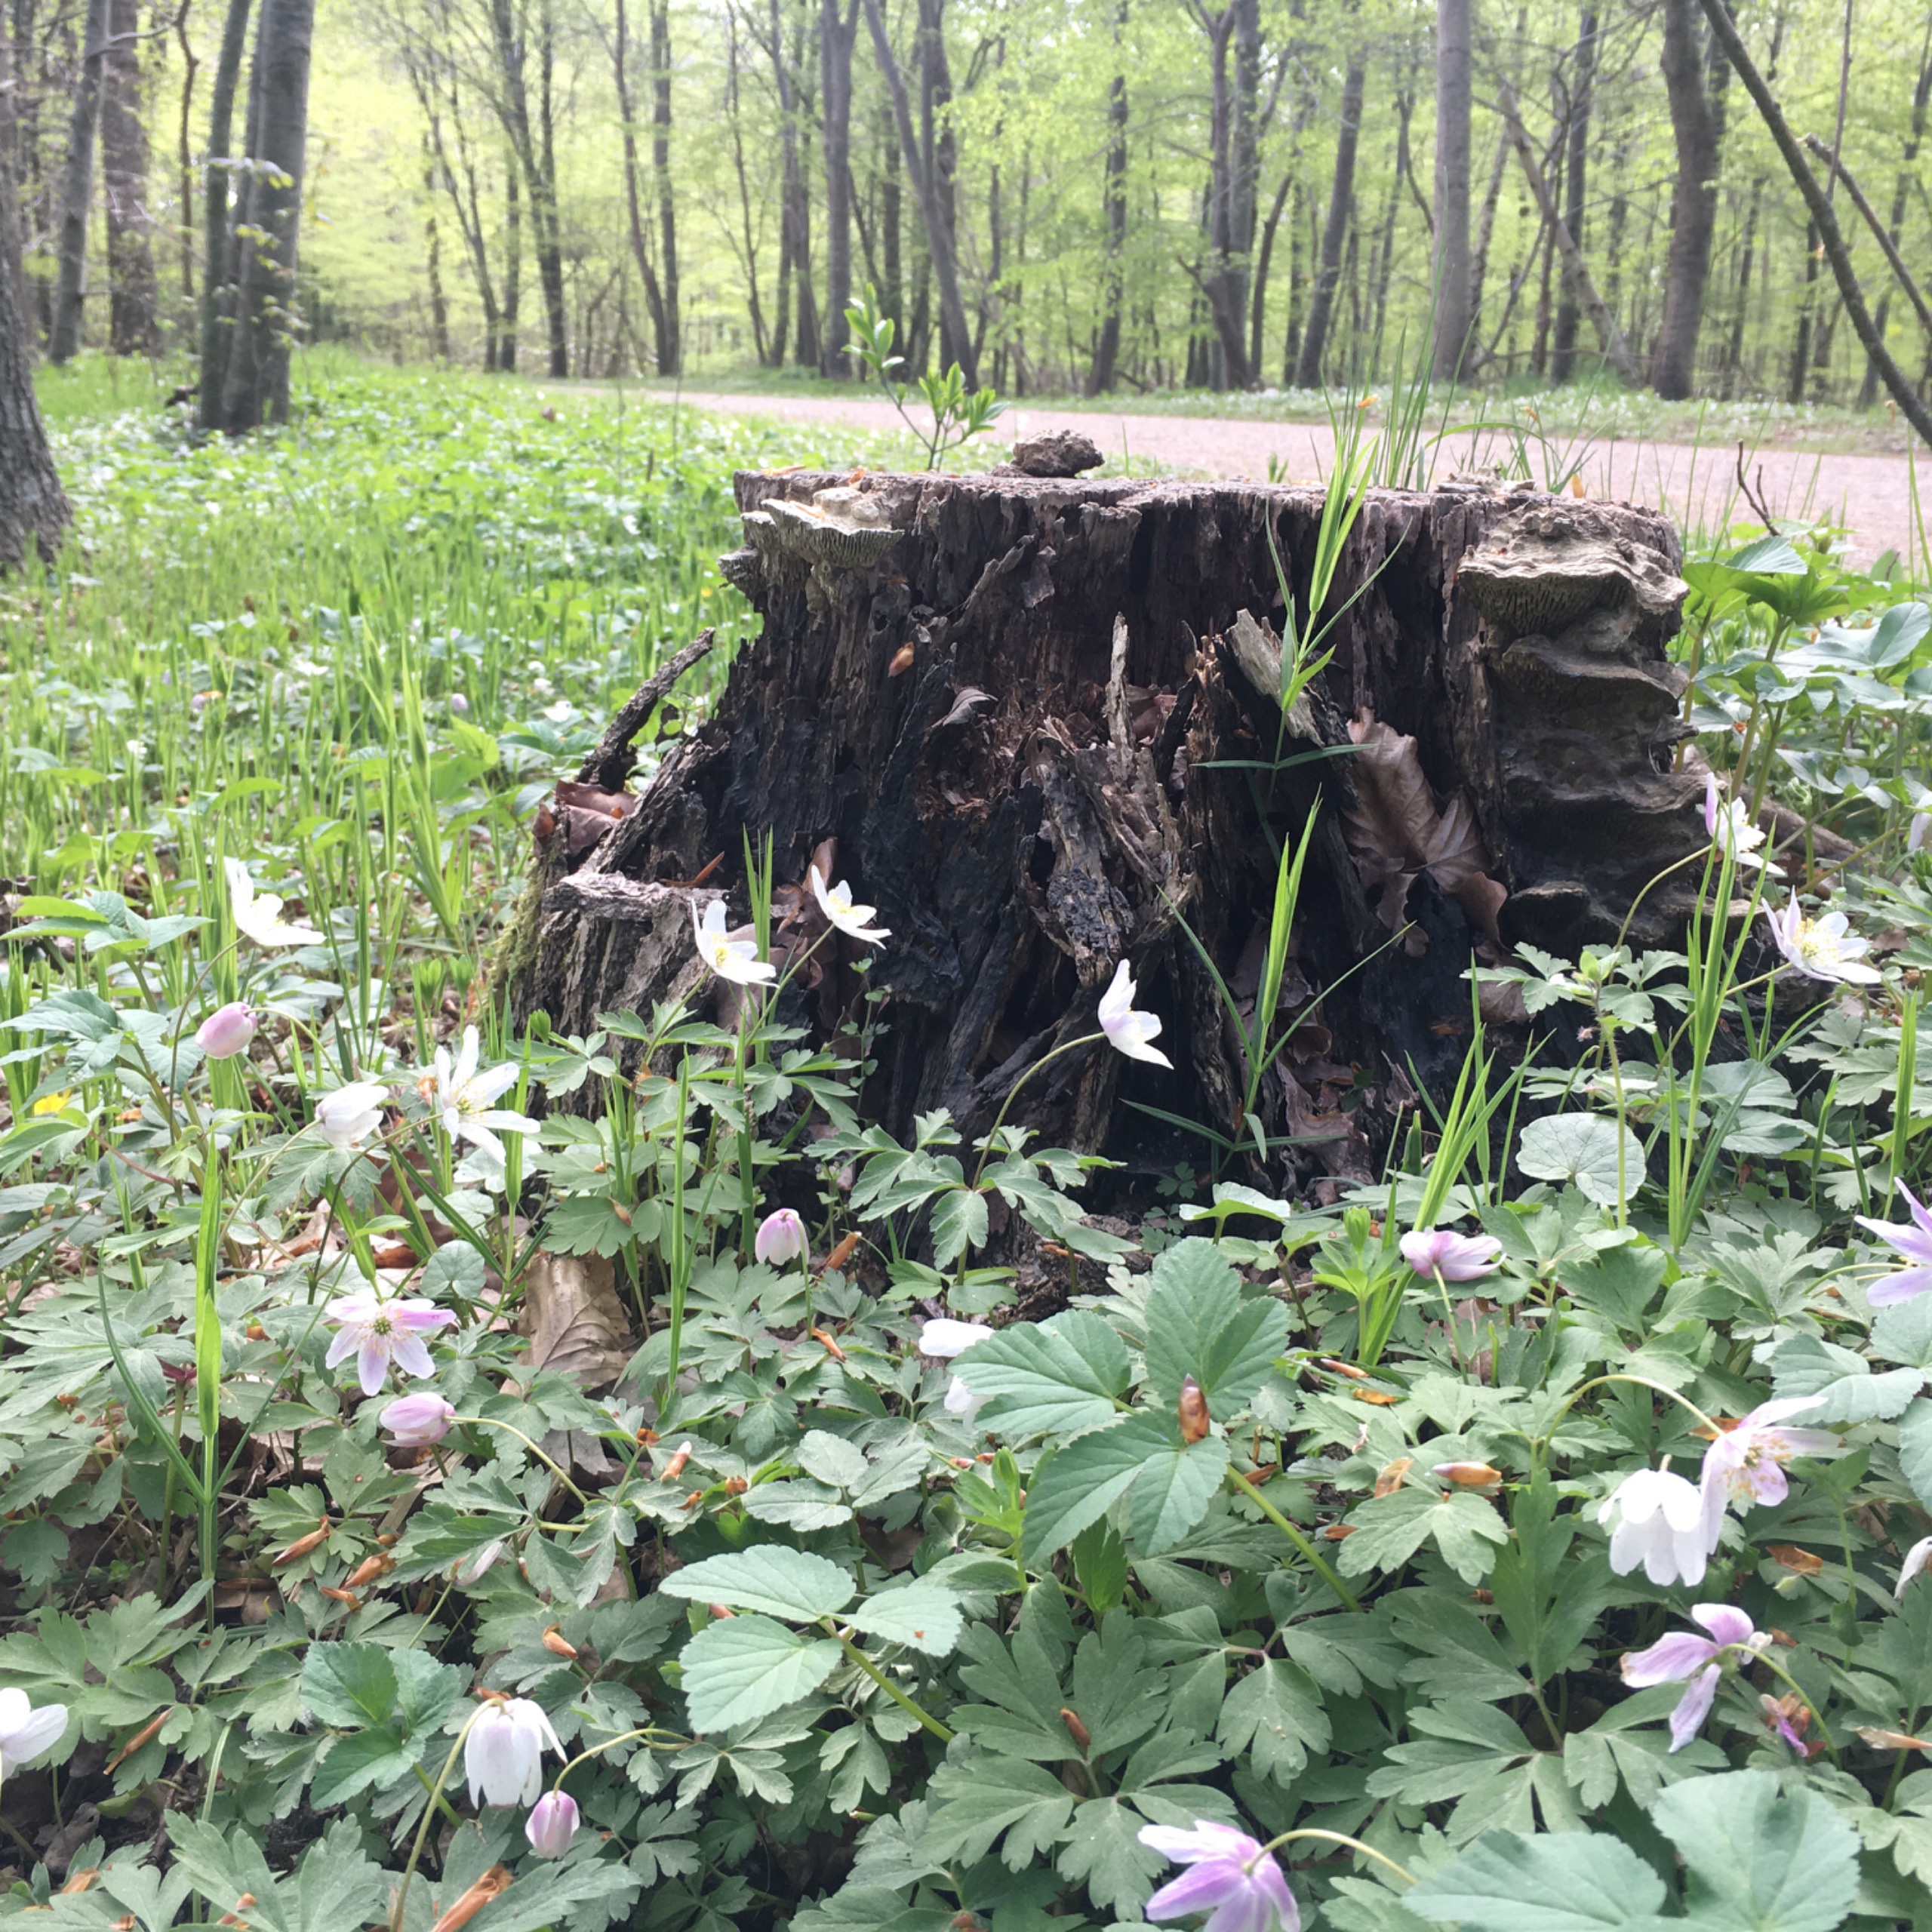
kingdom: Plantae
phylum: Tracheophyta
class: Magnoliopsida
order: Ranunculales
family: Ranunculaceae
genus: Anemone
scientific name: Anemone nemorosa
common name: Hvid anemone
